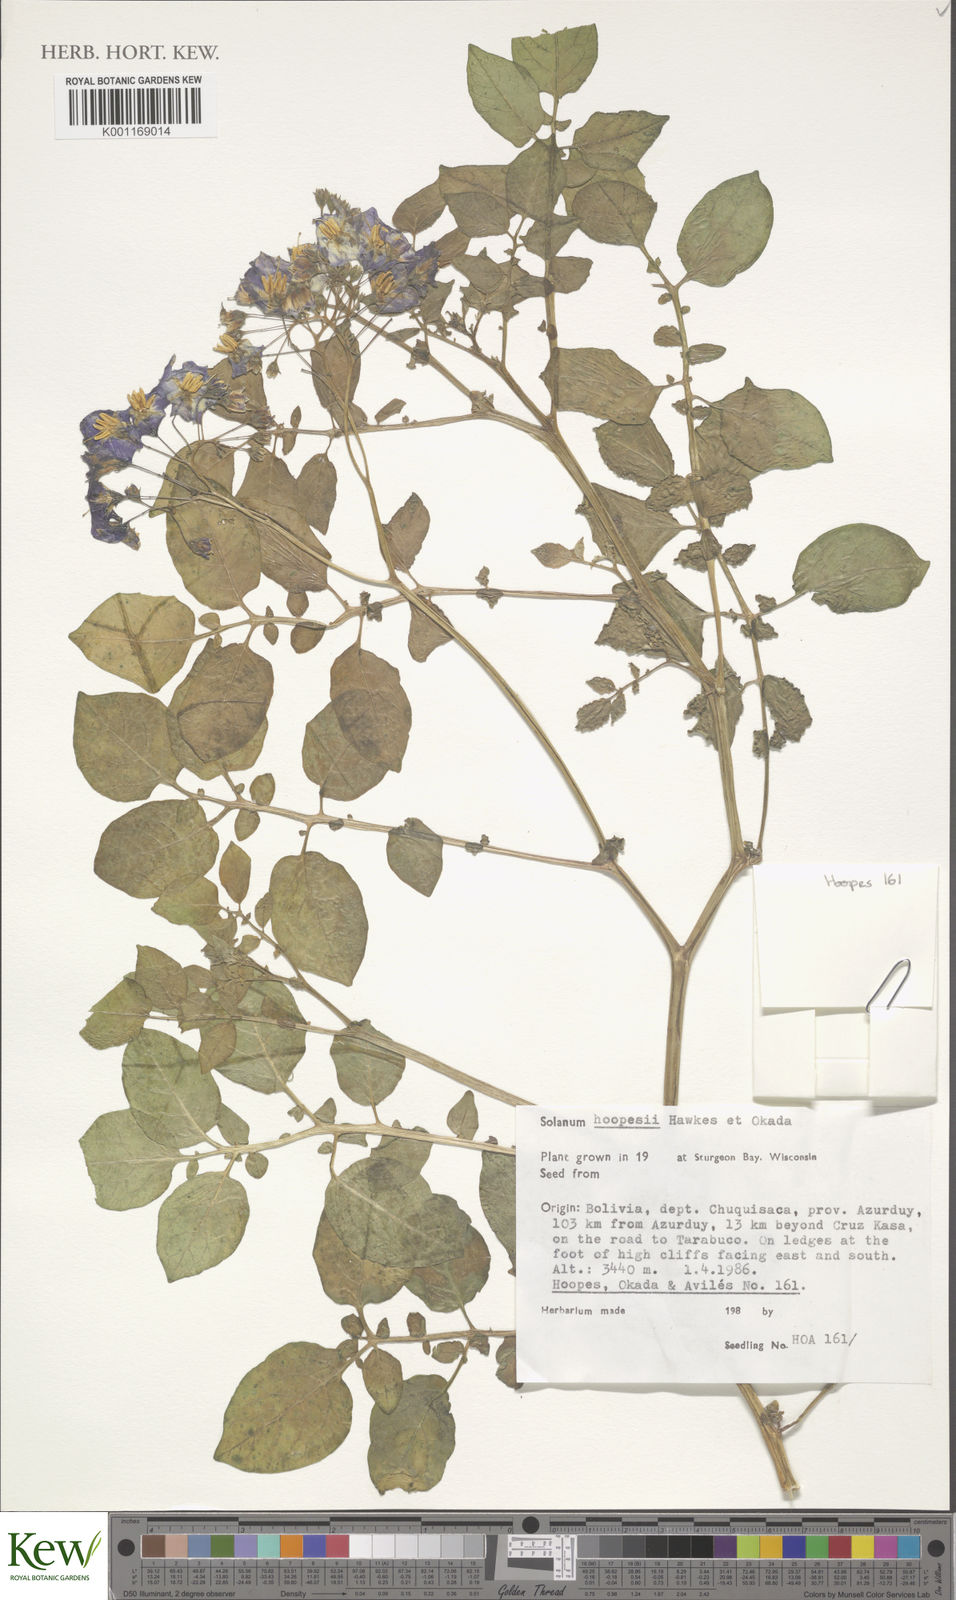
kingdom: Plantae
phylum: Tracheophyta
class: Magnoliopsida
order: Solanales
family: Solanaceae
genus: Solanum
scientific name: Solanum brevicaule
